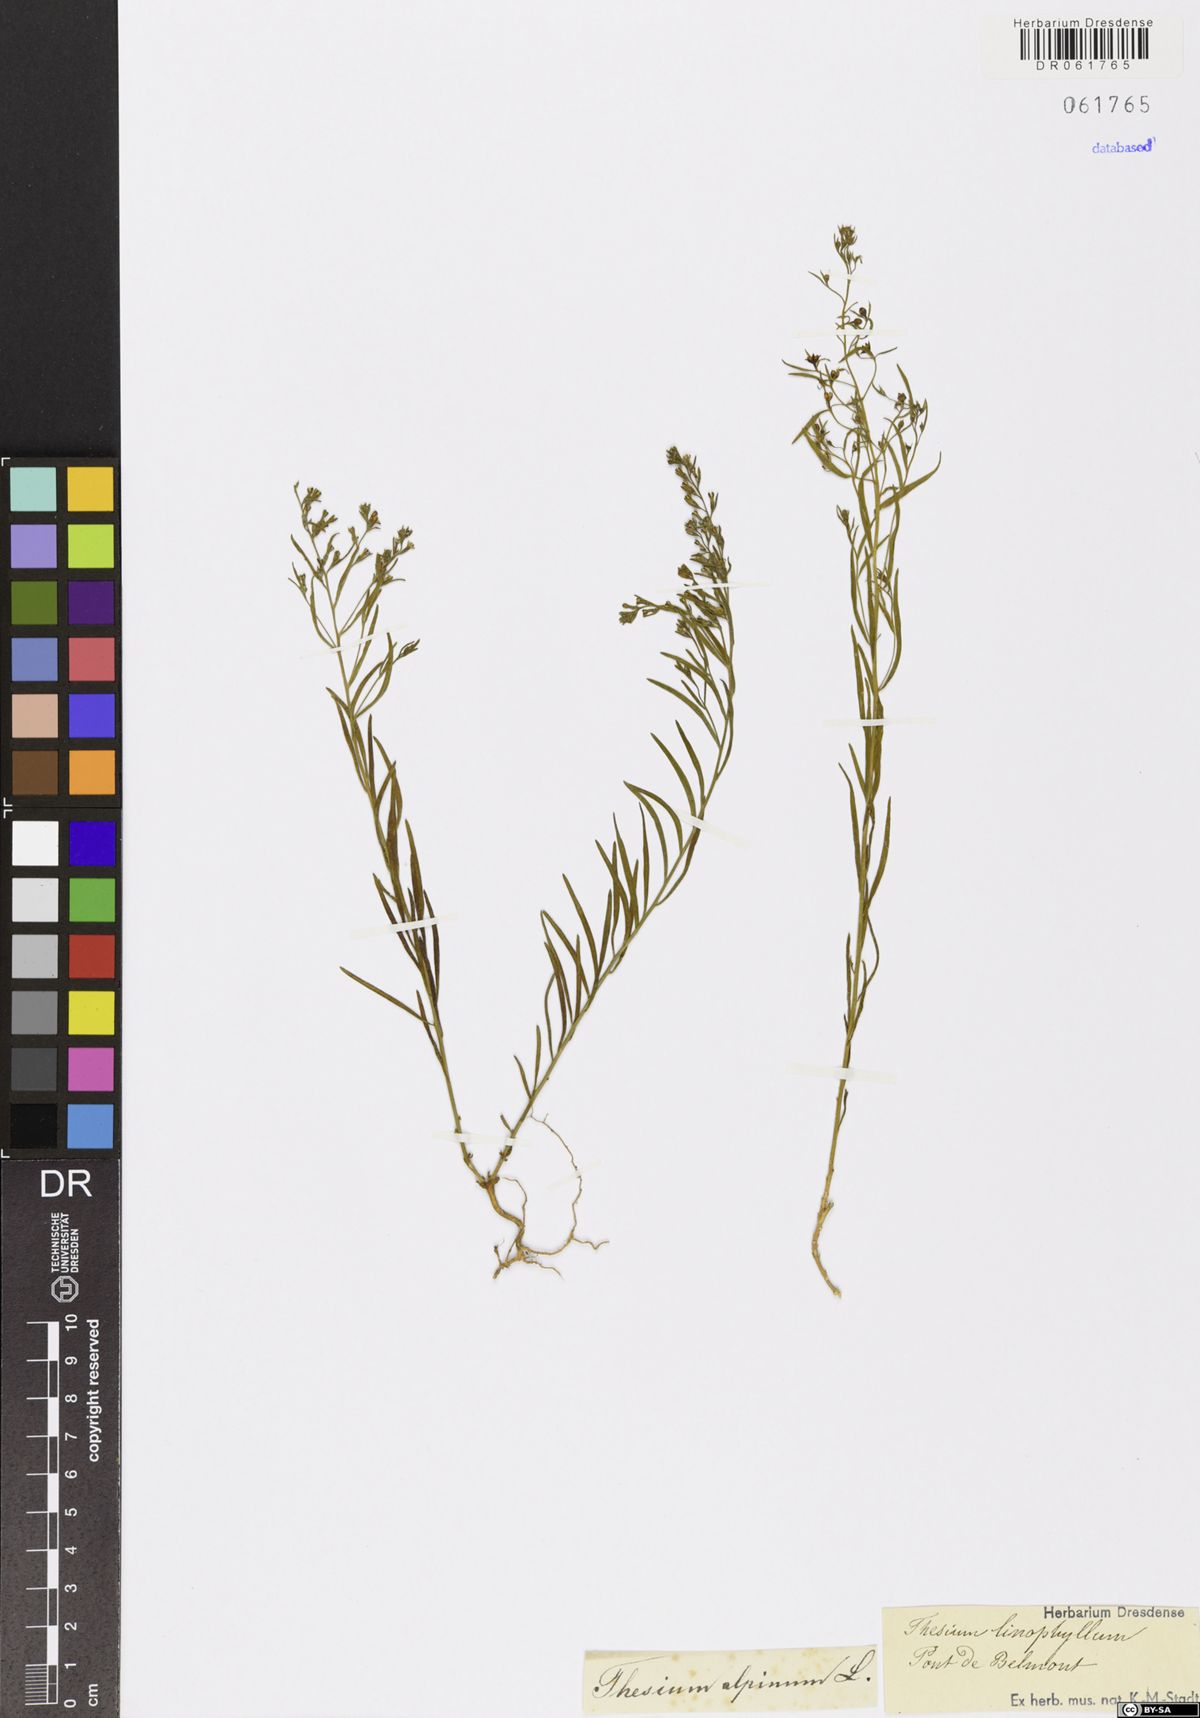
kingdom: Plantae
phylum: Tracheophyta
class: Magnoliopsida
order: Santalales
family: Thesiaceae
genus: Thesium
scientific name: Thesium alpinum
